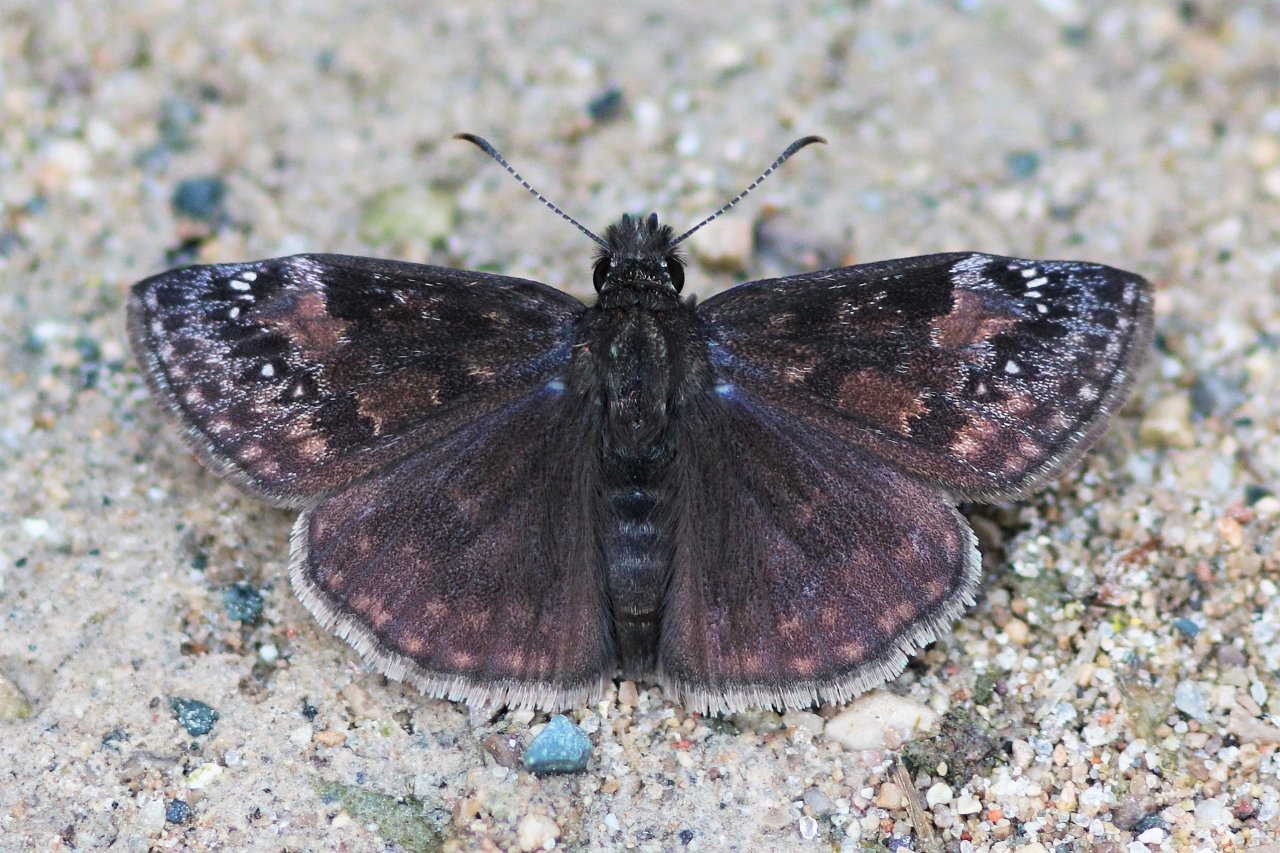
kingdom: Animalia
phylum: Arthropoda
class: Insecta
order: Lepidoptera
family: Hesperiidae
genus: Gesta
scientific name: Gesta
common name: Wild Indigo Duskywing
